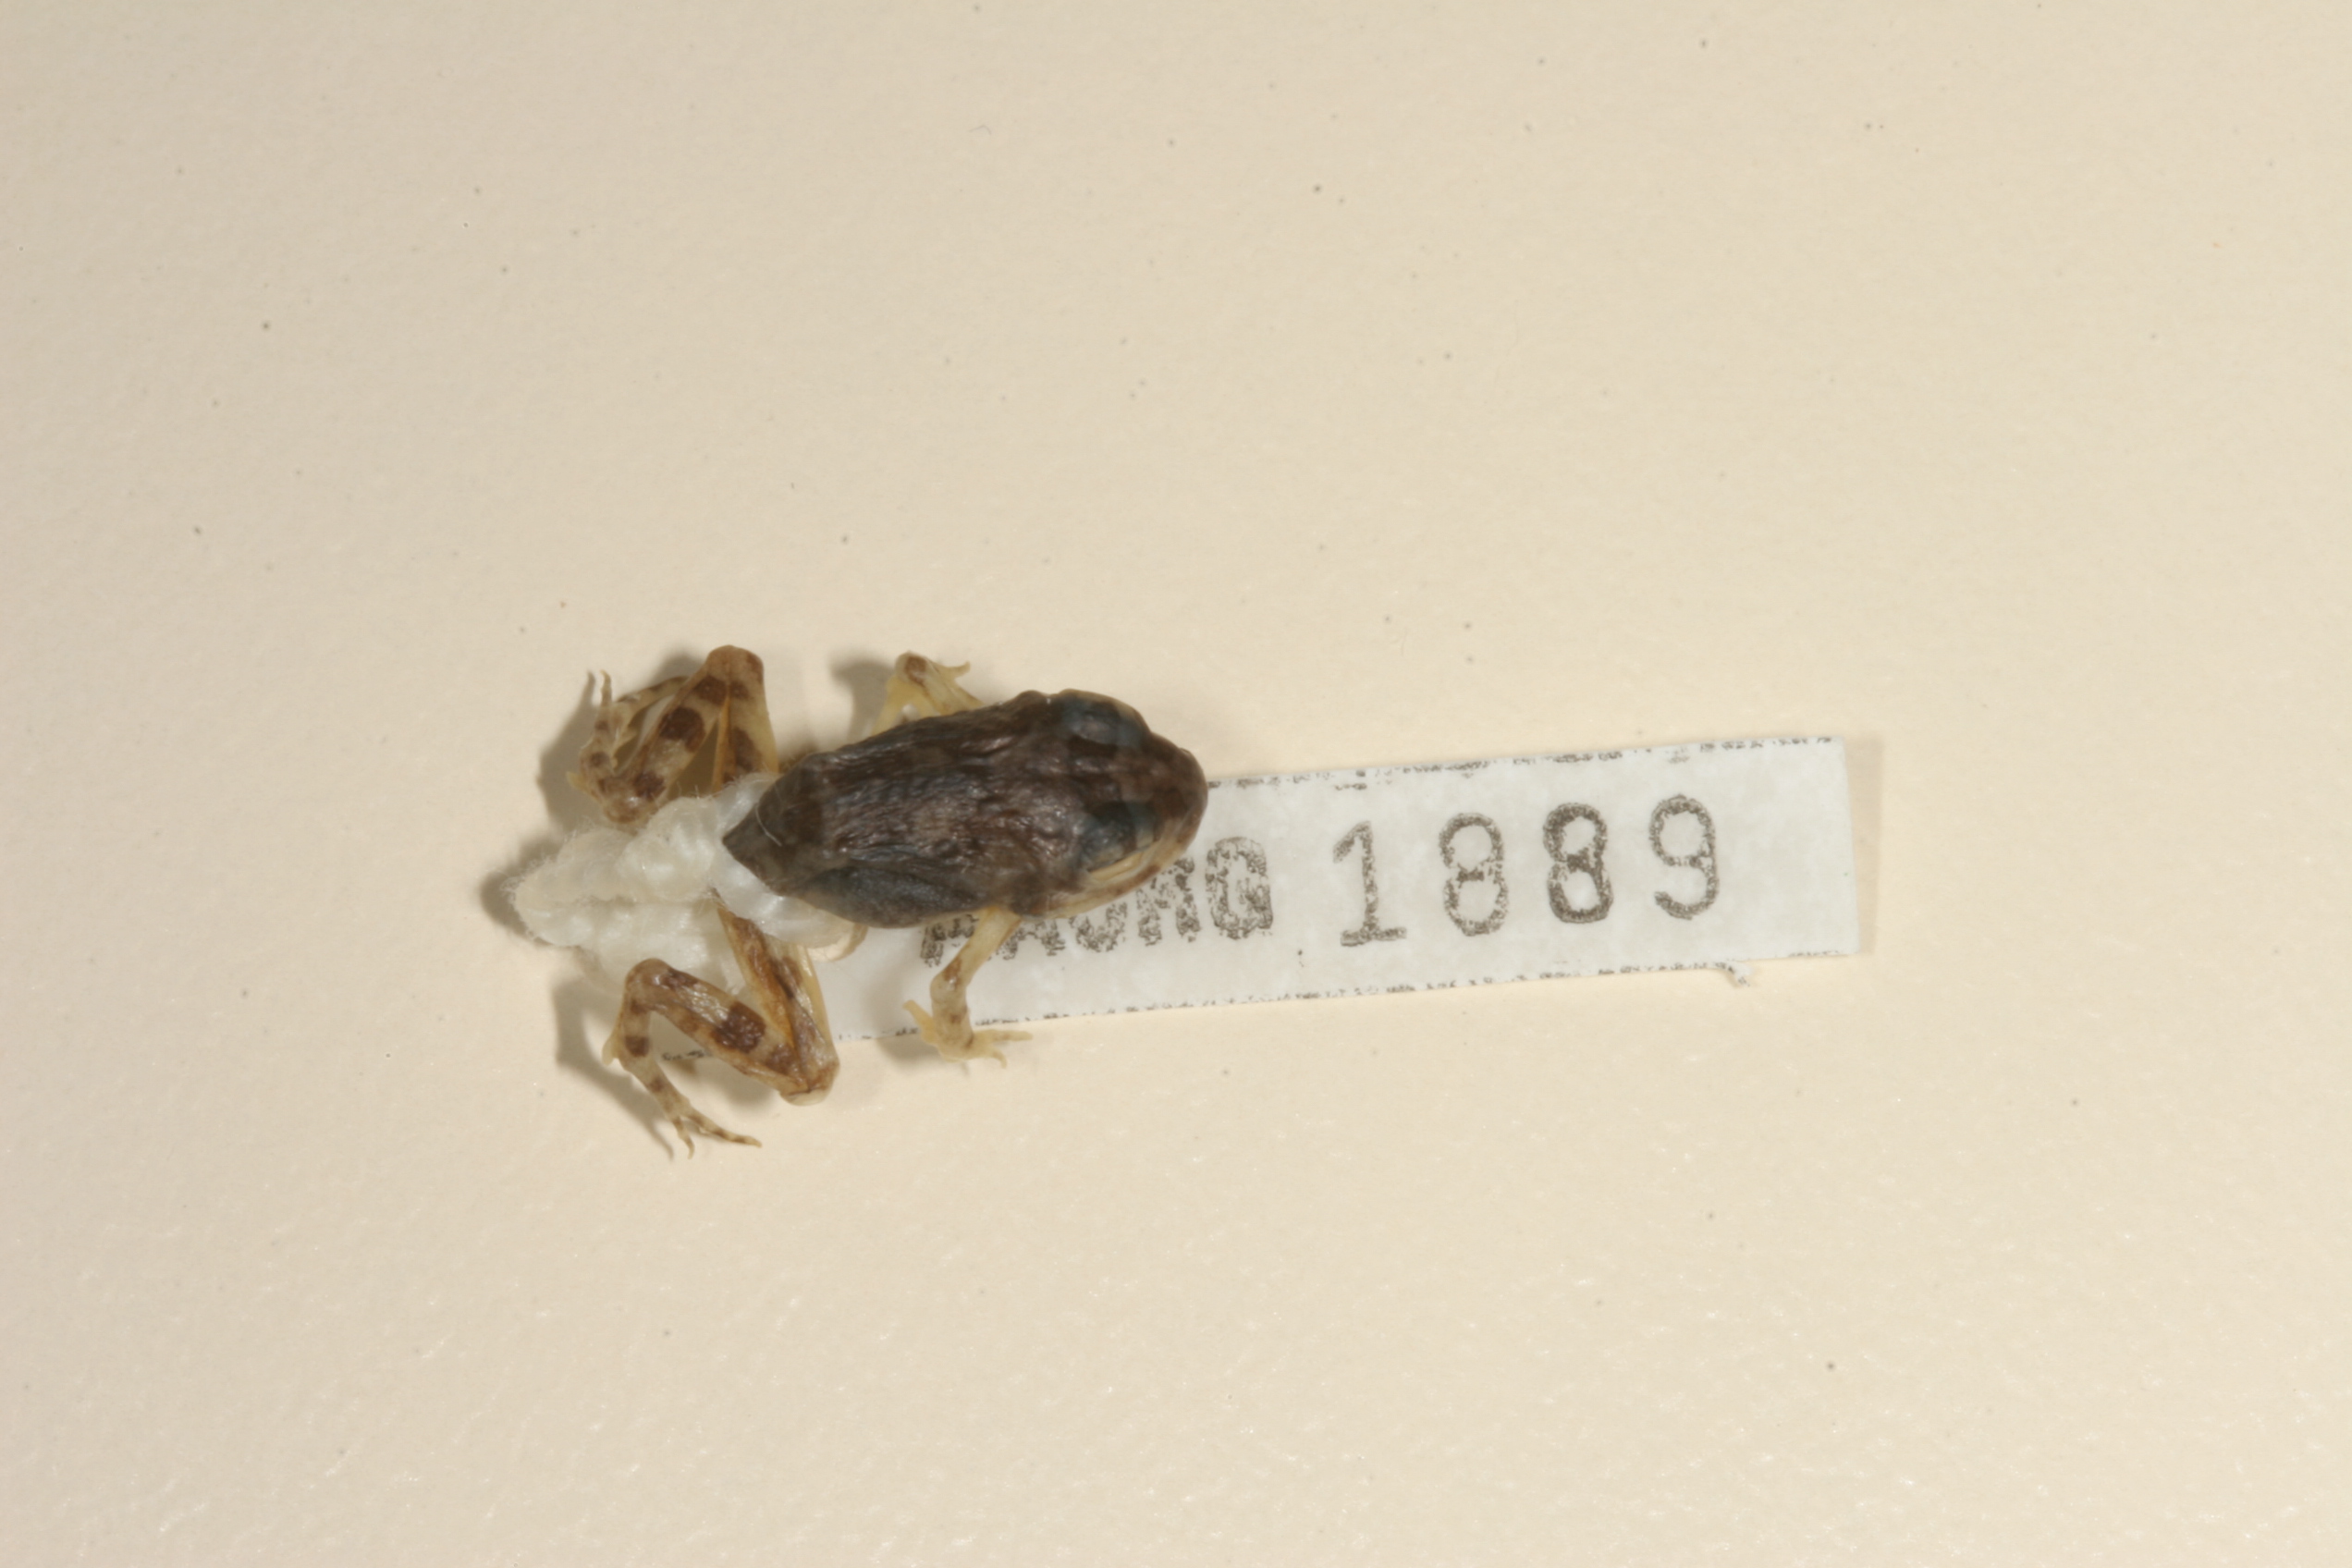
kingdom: Animalia
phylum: Chordata
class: Amphibia
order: Anura
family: Pyxicephalidae
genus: Tomopterna
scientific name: Tomopterna cryptotis
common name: Catequero bullfrog
